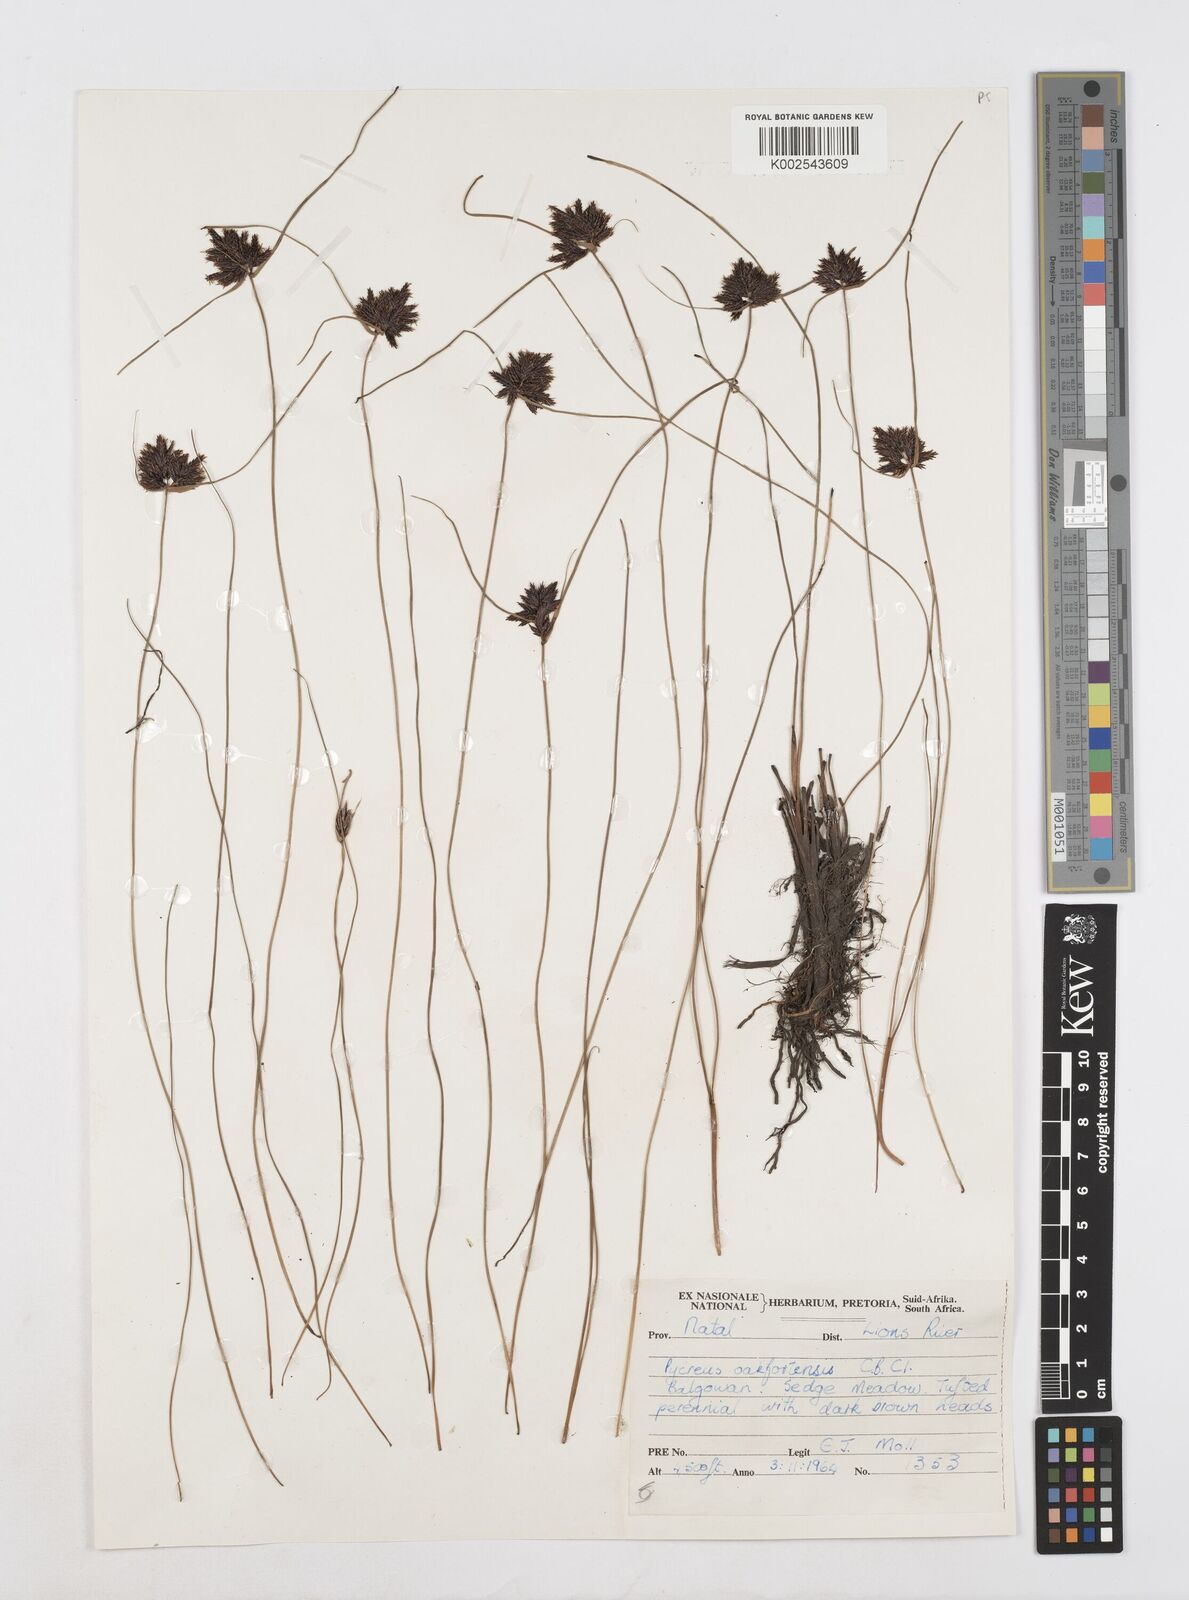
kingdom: Plantae
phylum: Tracheophyta
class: Liliopsida
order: Poales
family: Cyperaceae
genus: Cyperus
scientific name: Cyperus oakfortensis
